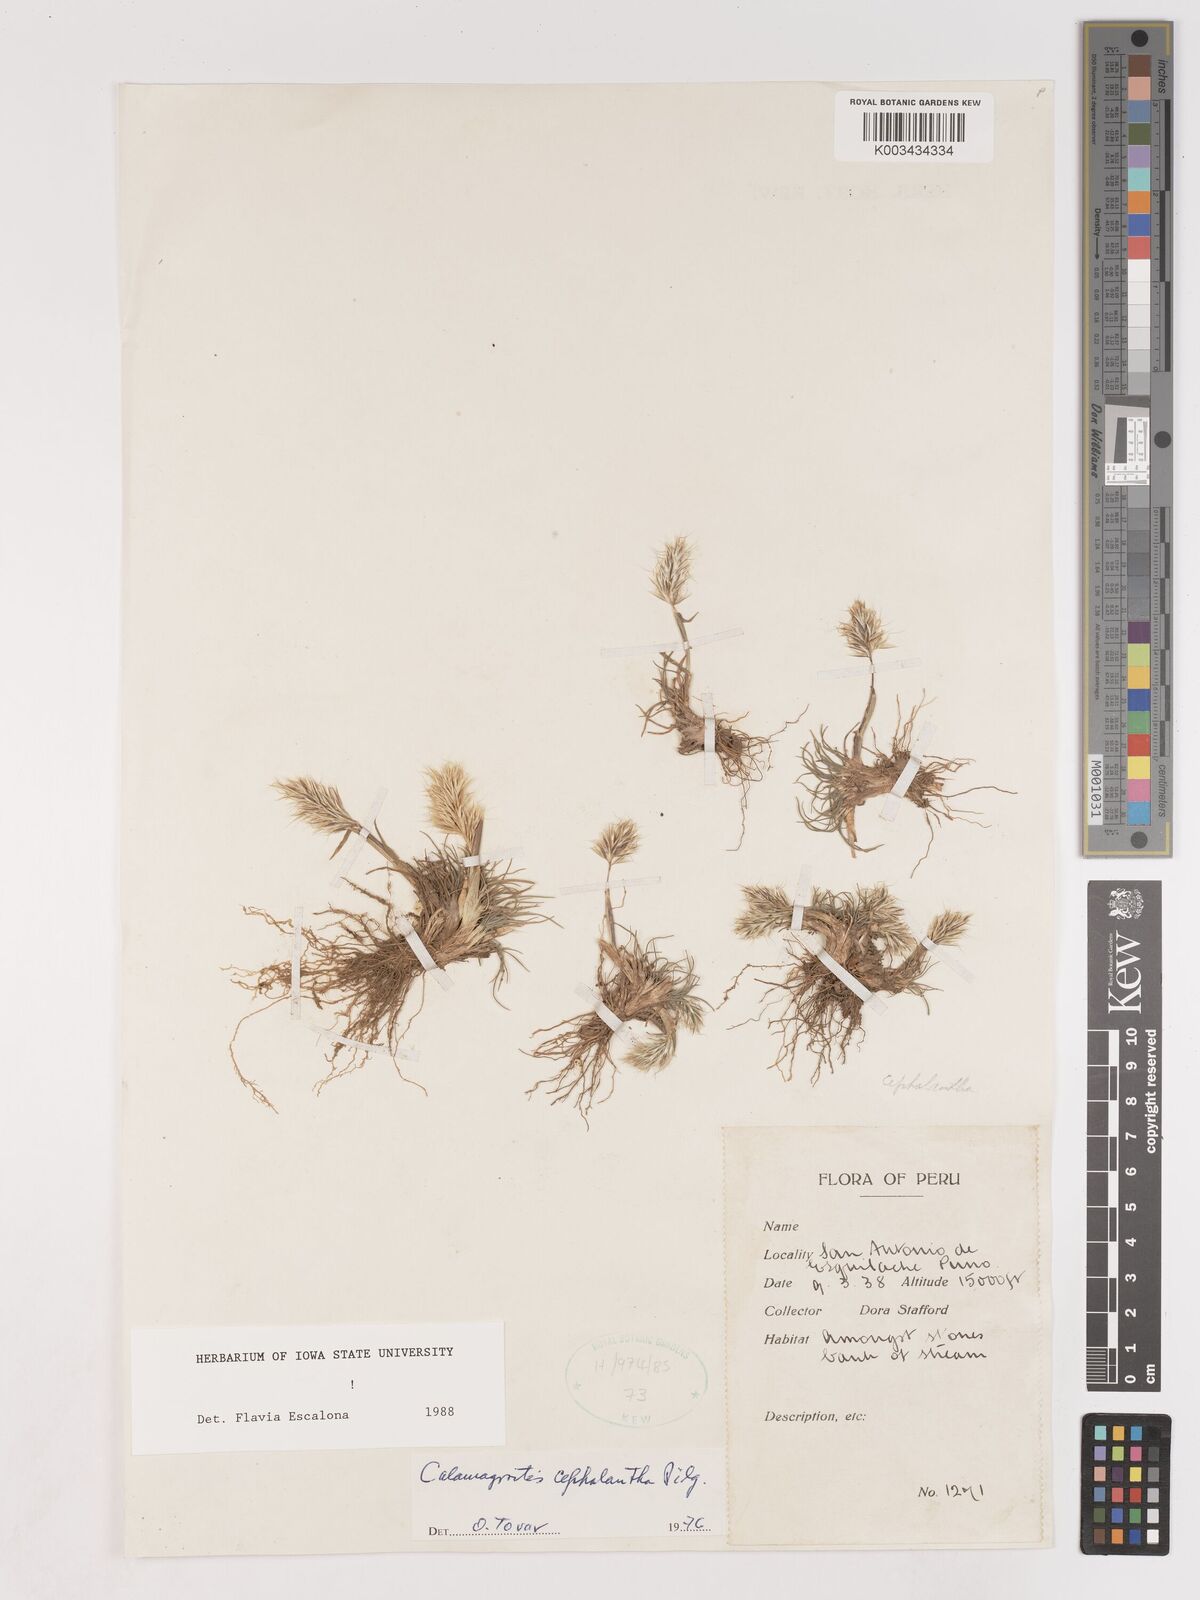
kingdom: Plantae
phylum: Tracheophyta
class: Liliopsida
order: Poales
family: Poaceae
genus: Calamagrostis
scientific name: Calamagrostis
